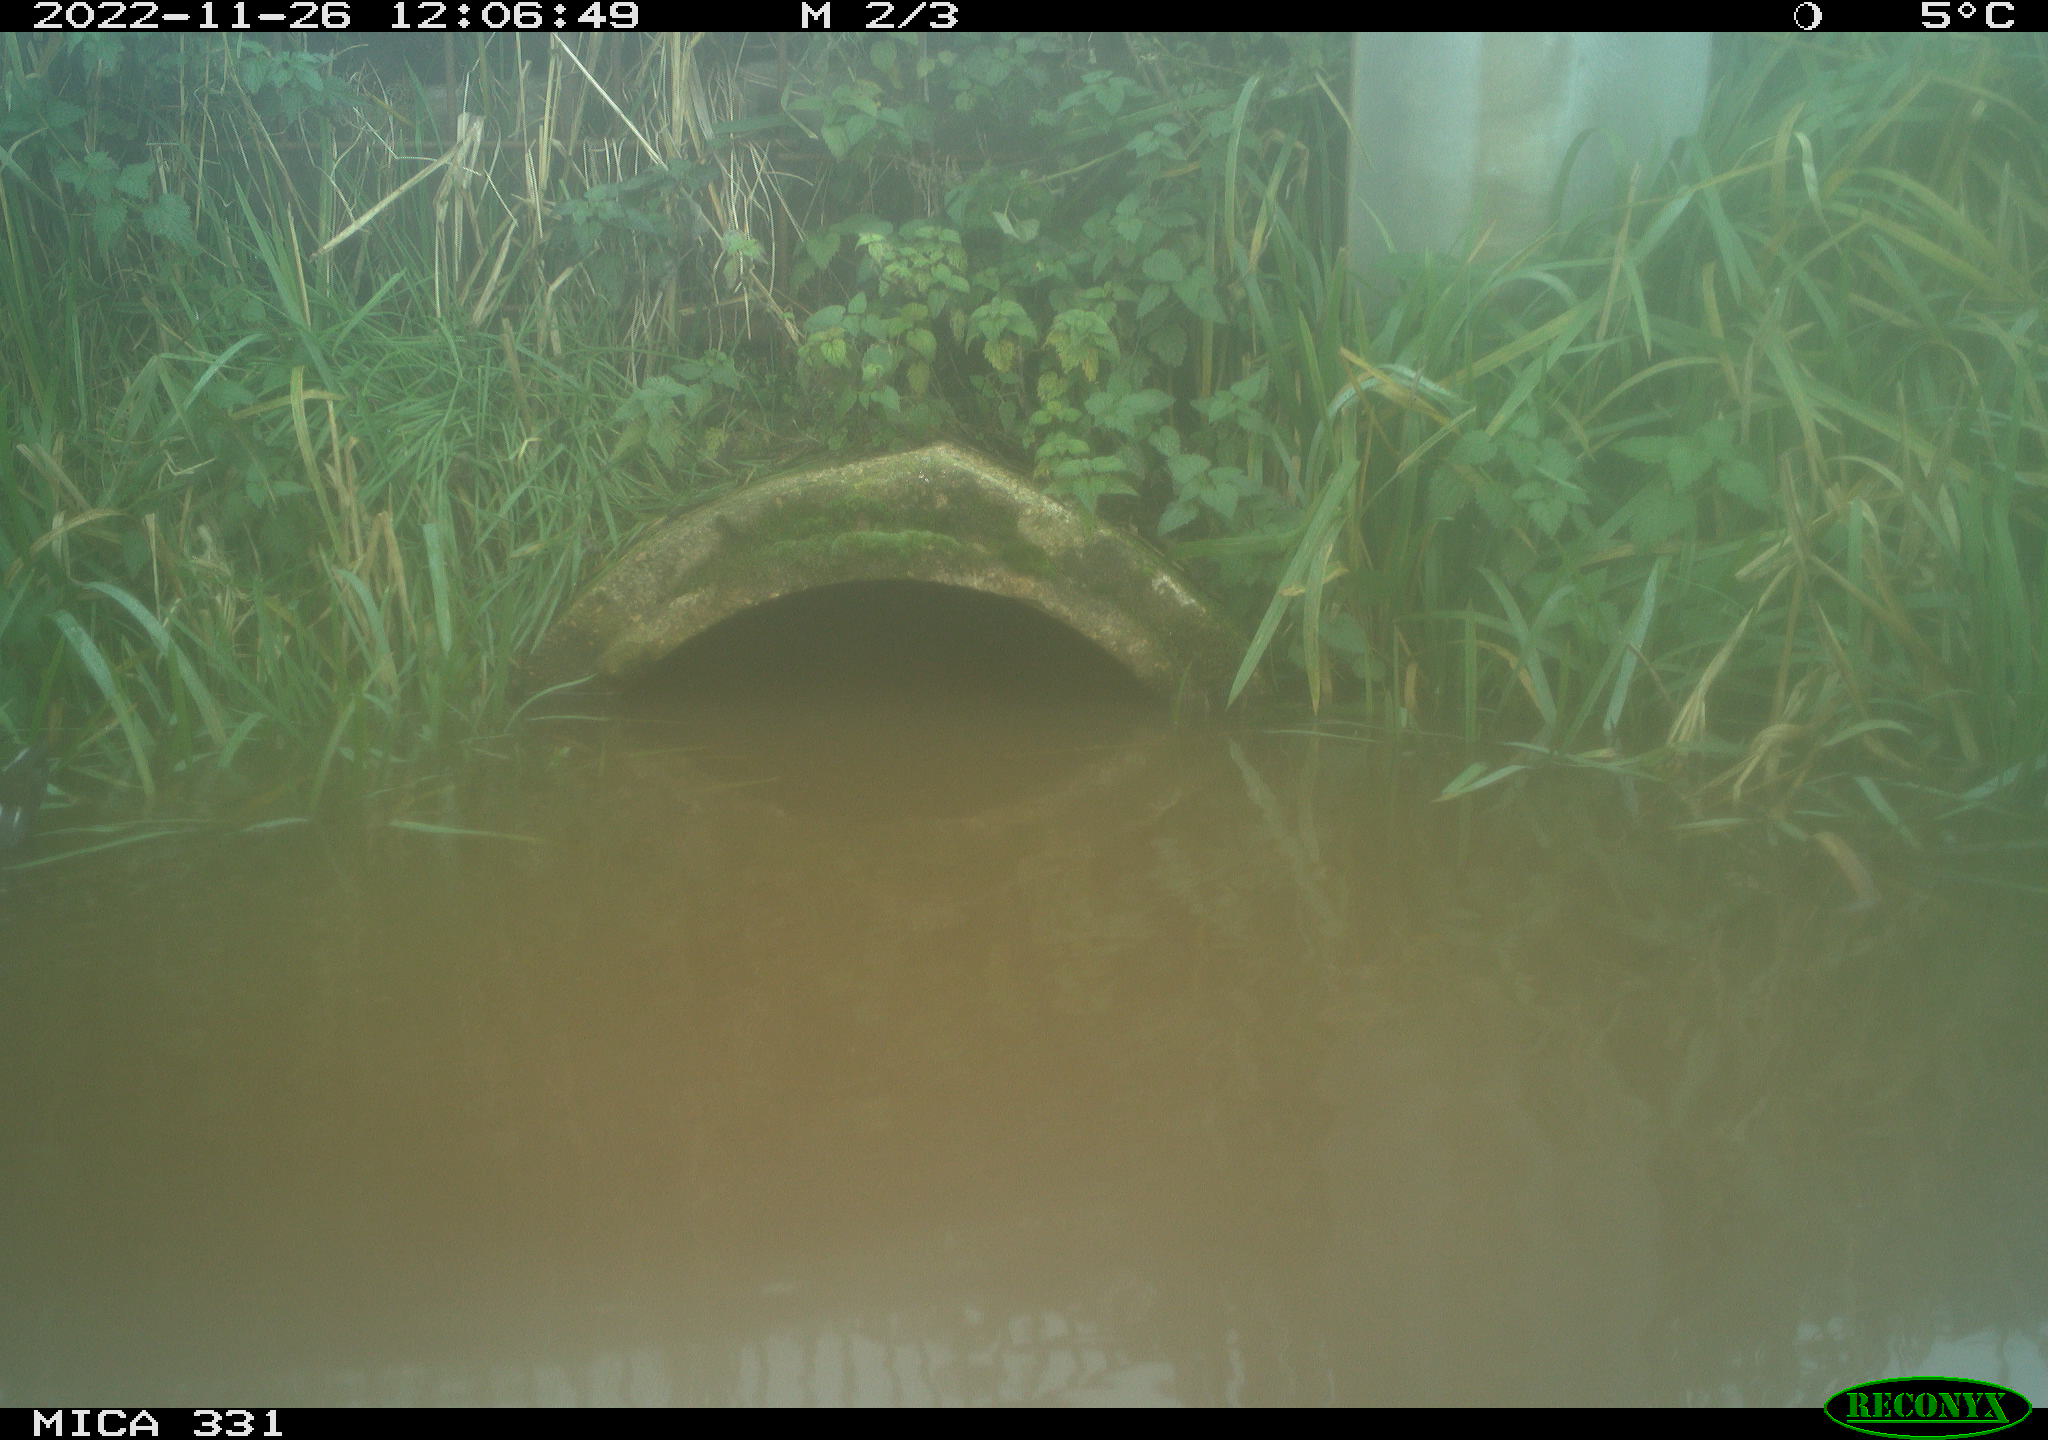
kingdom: Animalia
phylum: Chordata
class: Aves
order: Gruiformes
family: Rallidae
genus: Gallinula
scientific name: Gallinula chloropus
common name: Common moorhen
